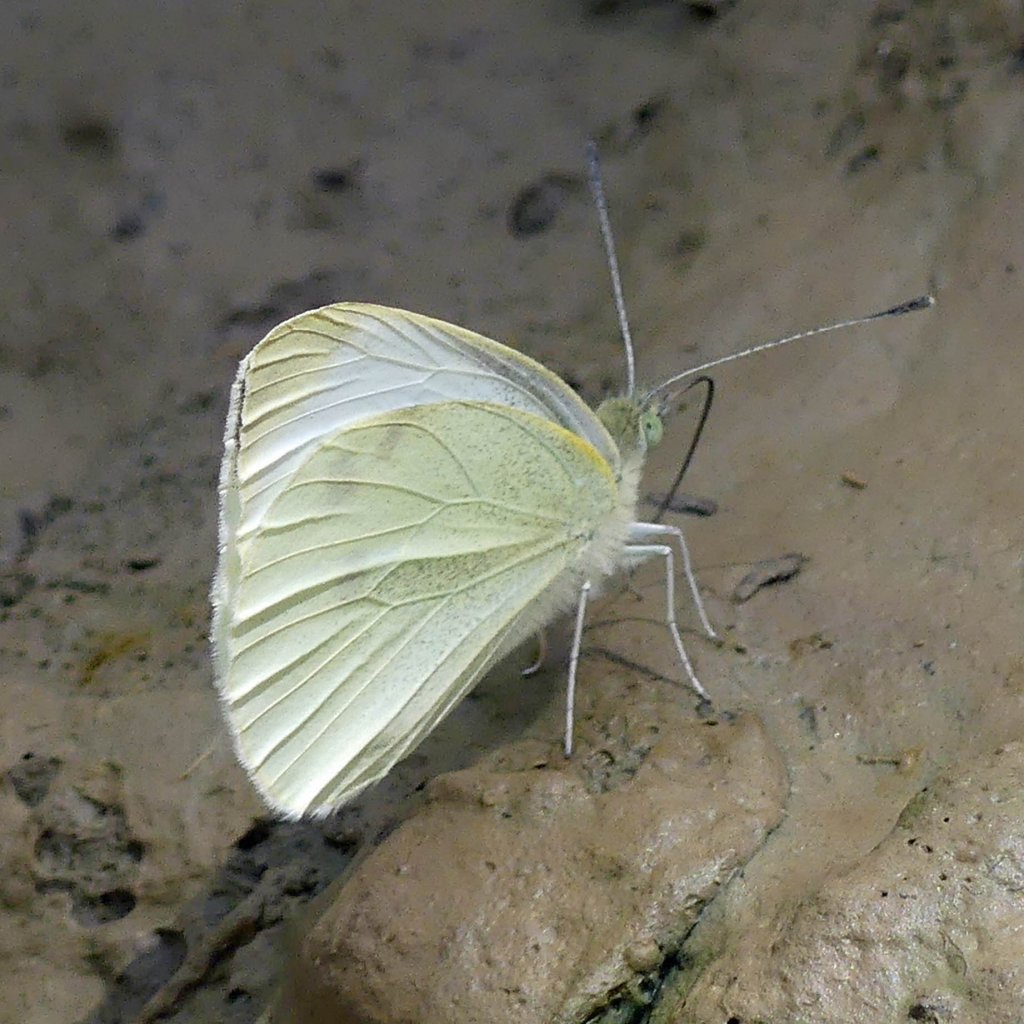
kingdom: Animalia
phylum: Arthropoda
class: Insecta
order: Lepidoptera
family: Pieridae
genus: Pieris
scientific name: Pieris rapae
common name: Cabbage White
